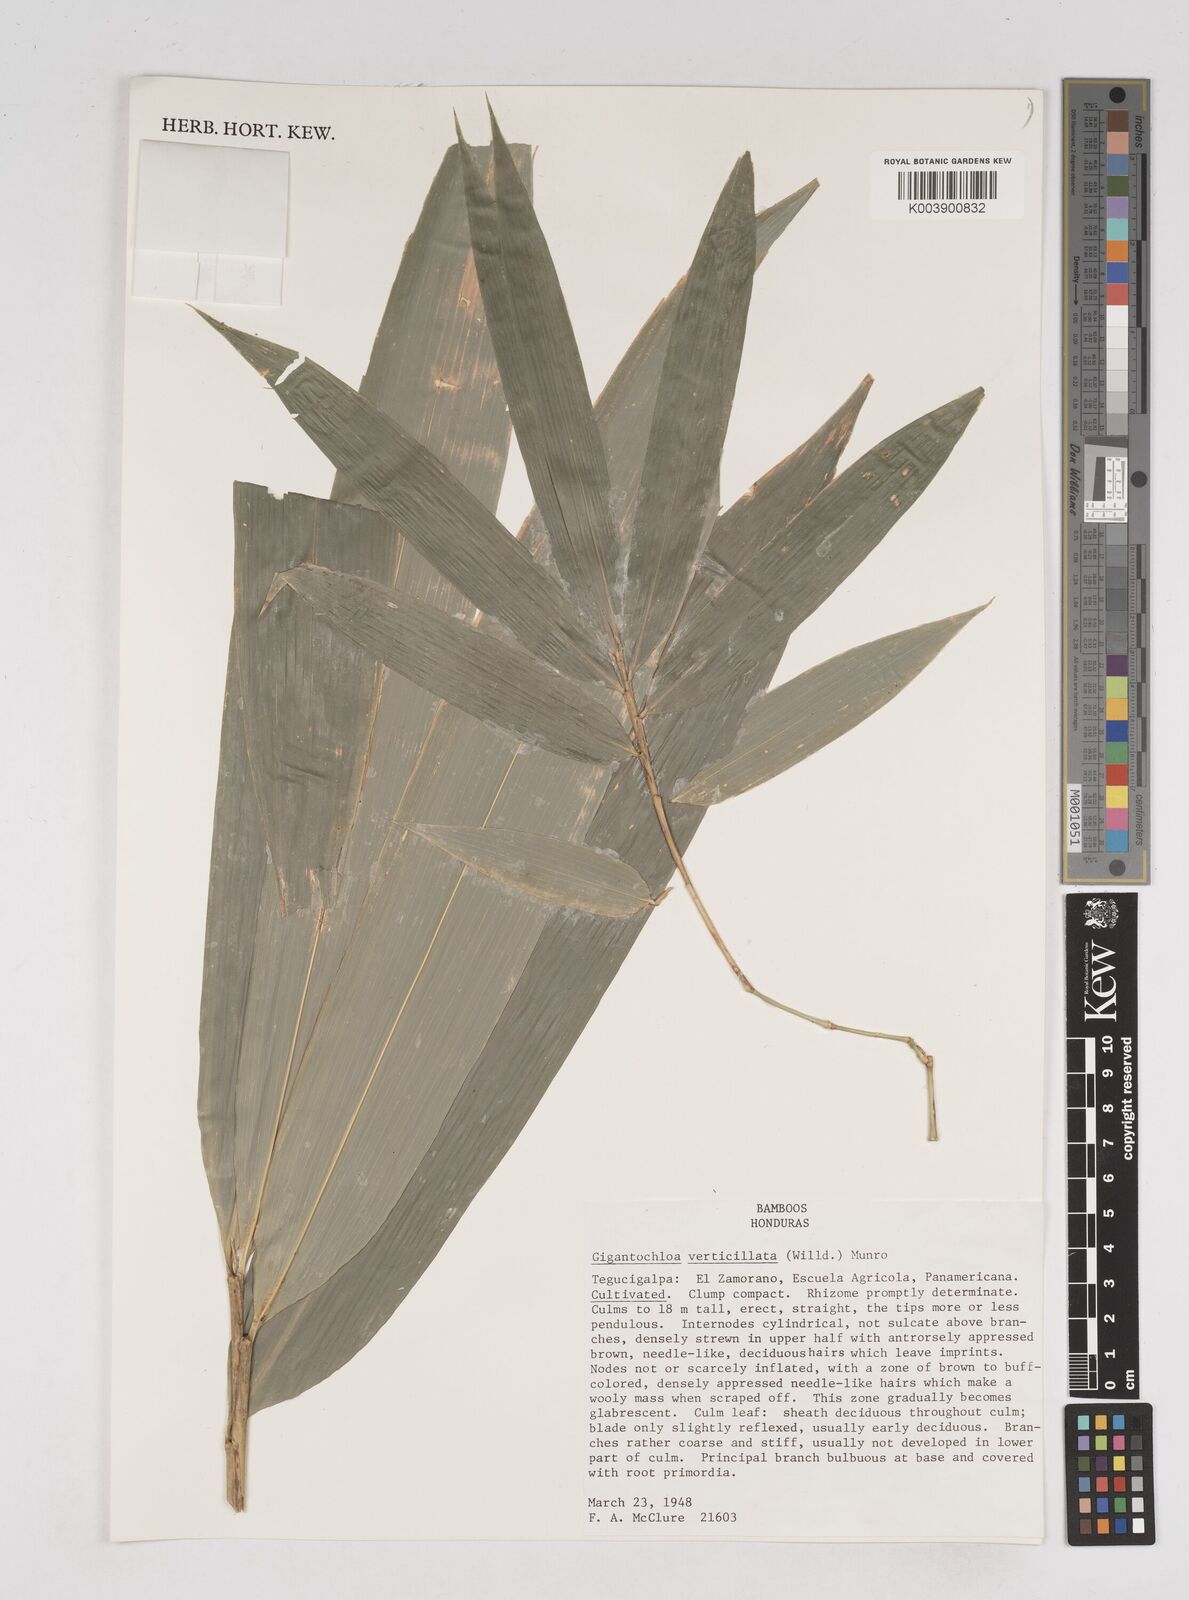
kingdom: Plantae
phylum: Tracheophyta
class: Liliopsida
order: Poales
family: Poaceae
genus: Gigantochloa
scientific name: Gigantochloa verticillata
